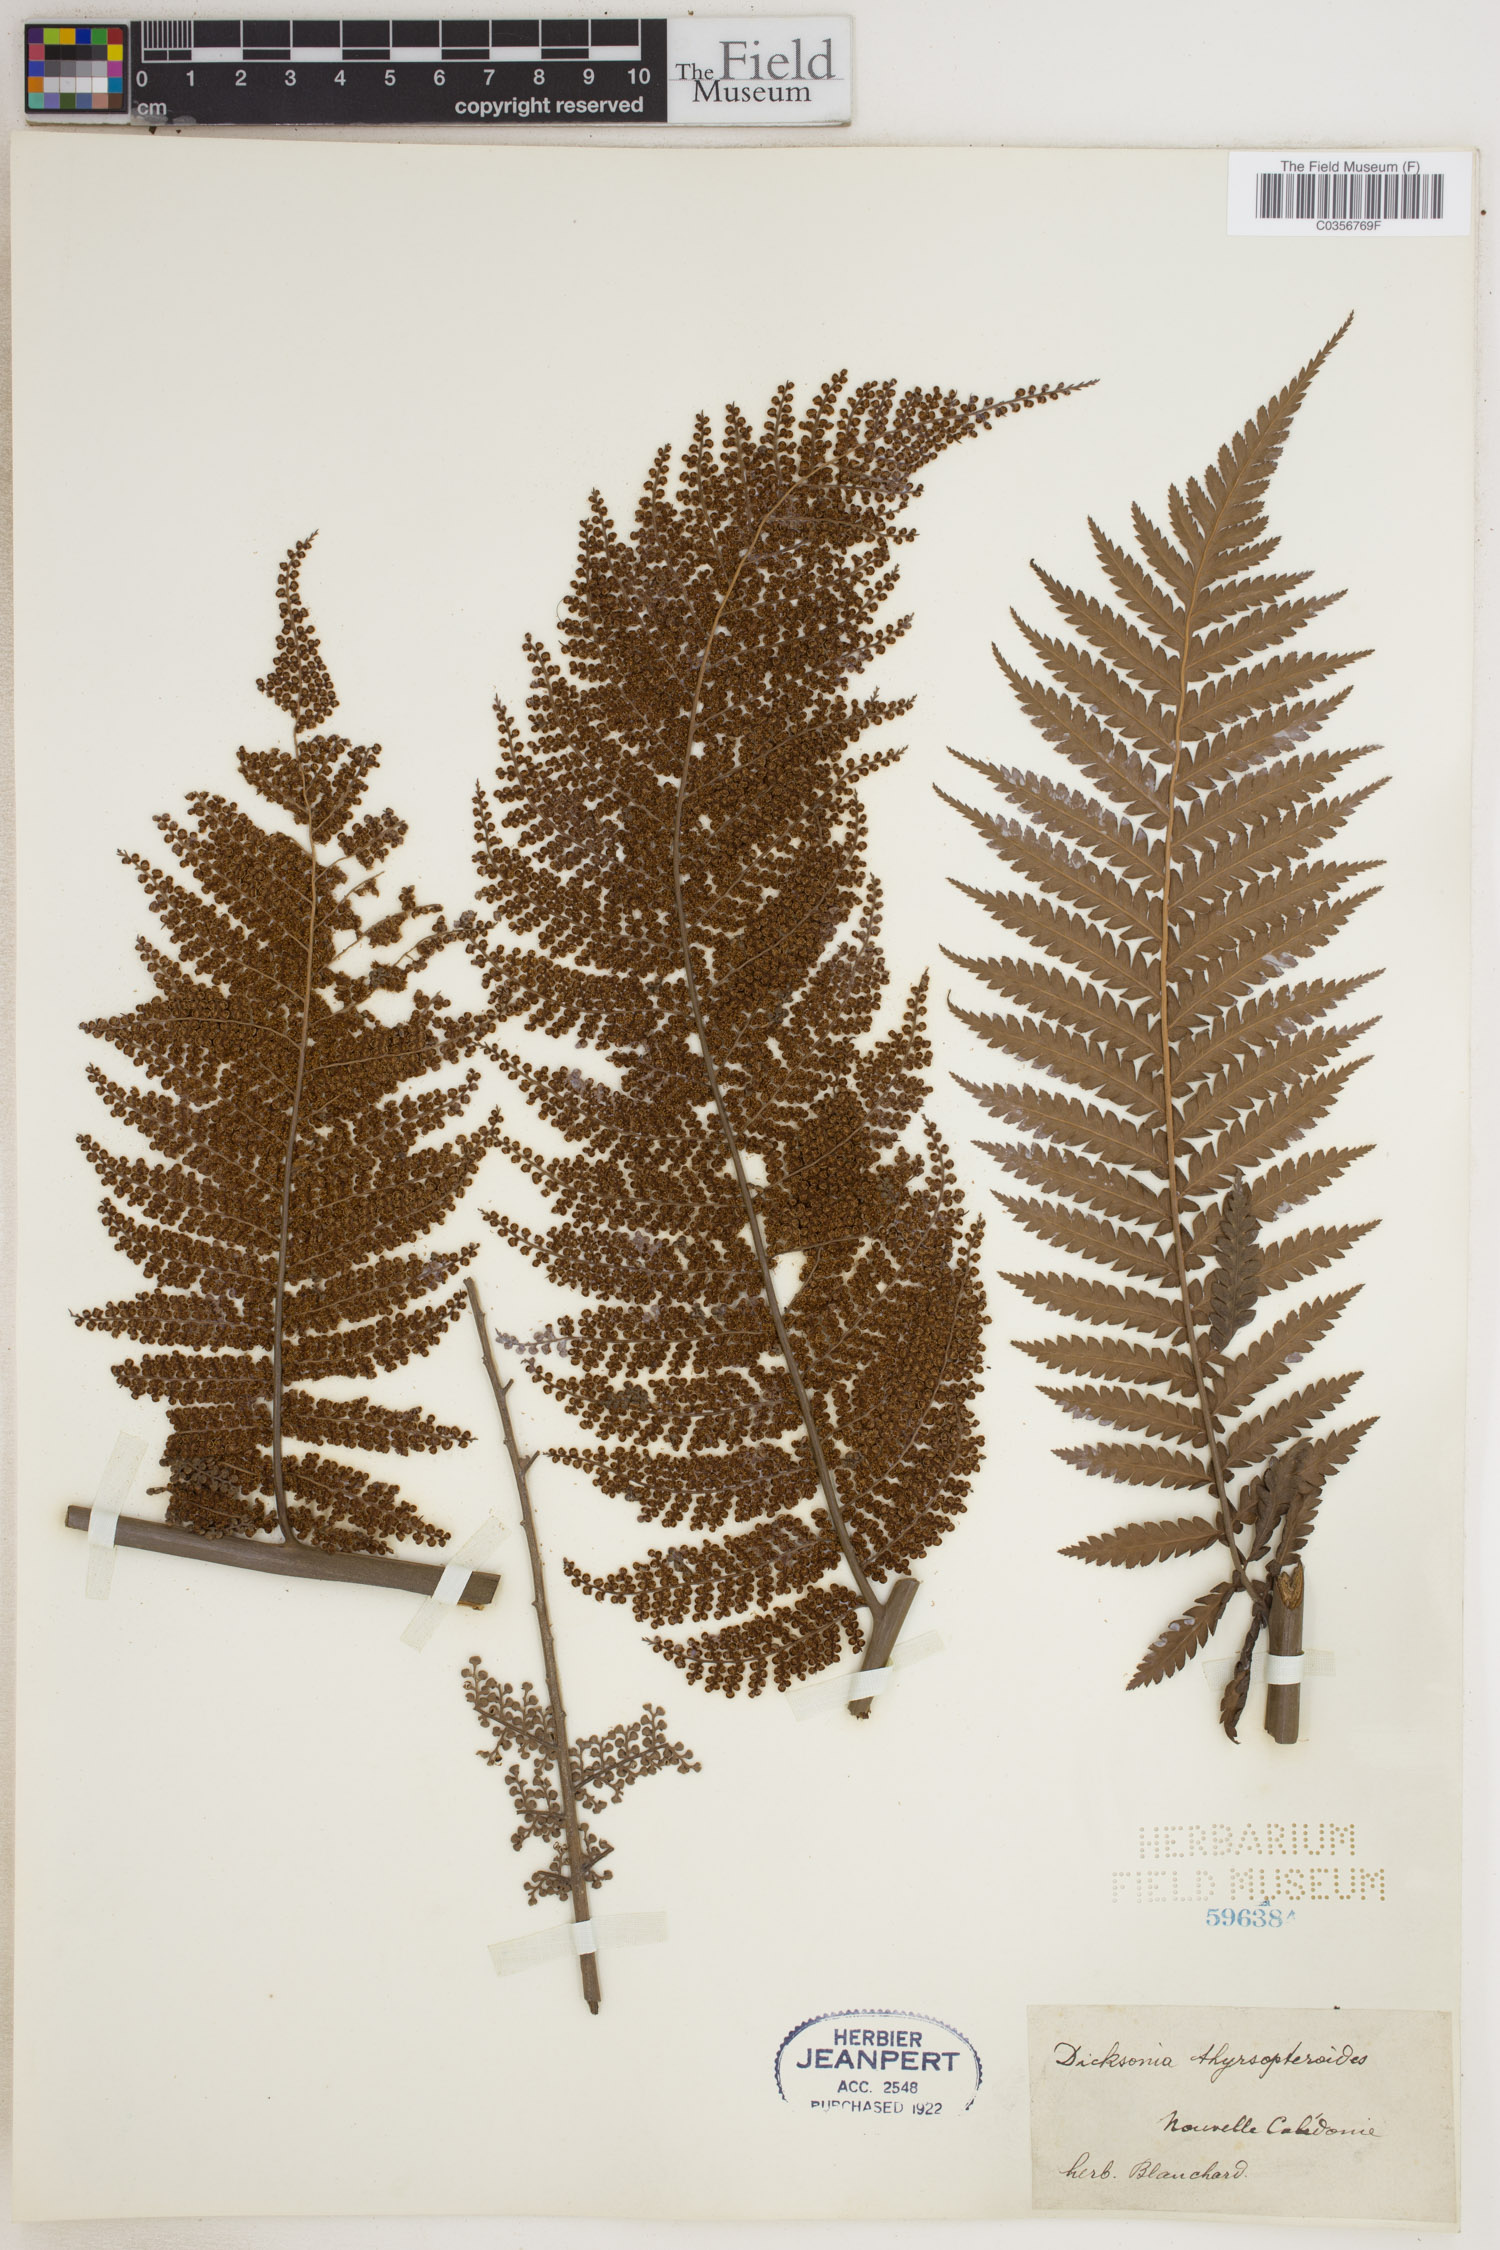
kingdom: Plantae
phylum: Tracheophyta
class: Polypodiopsida
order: Cyatheales
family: Dicksoniaceae
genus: Dicksonia
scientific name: Dicksonia thyrsopteroides
